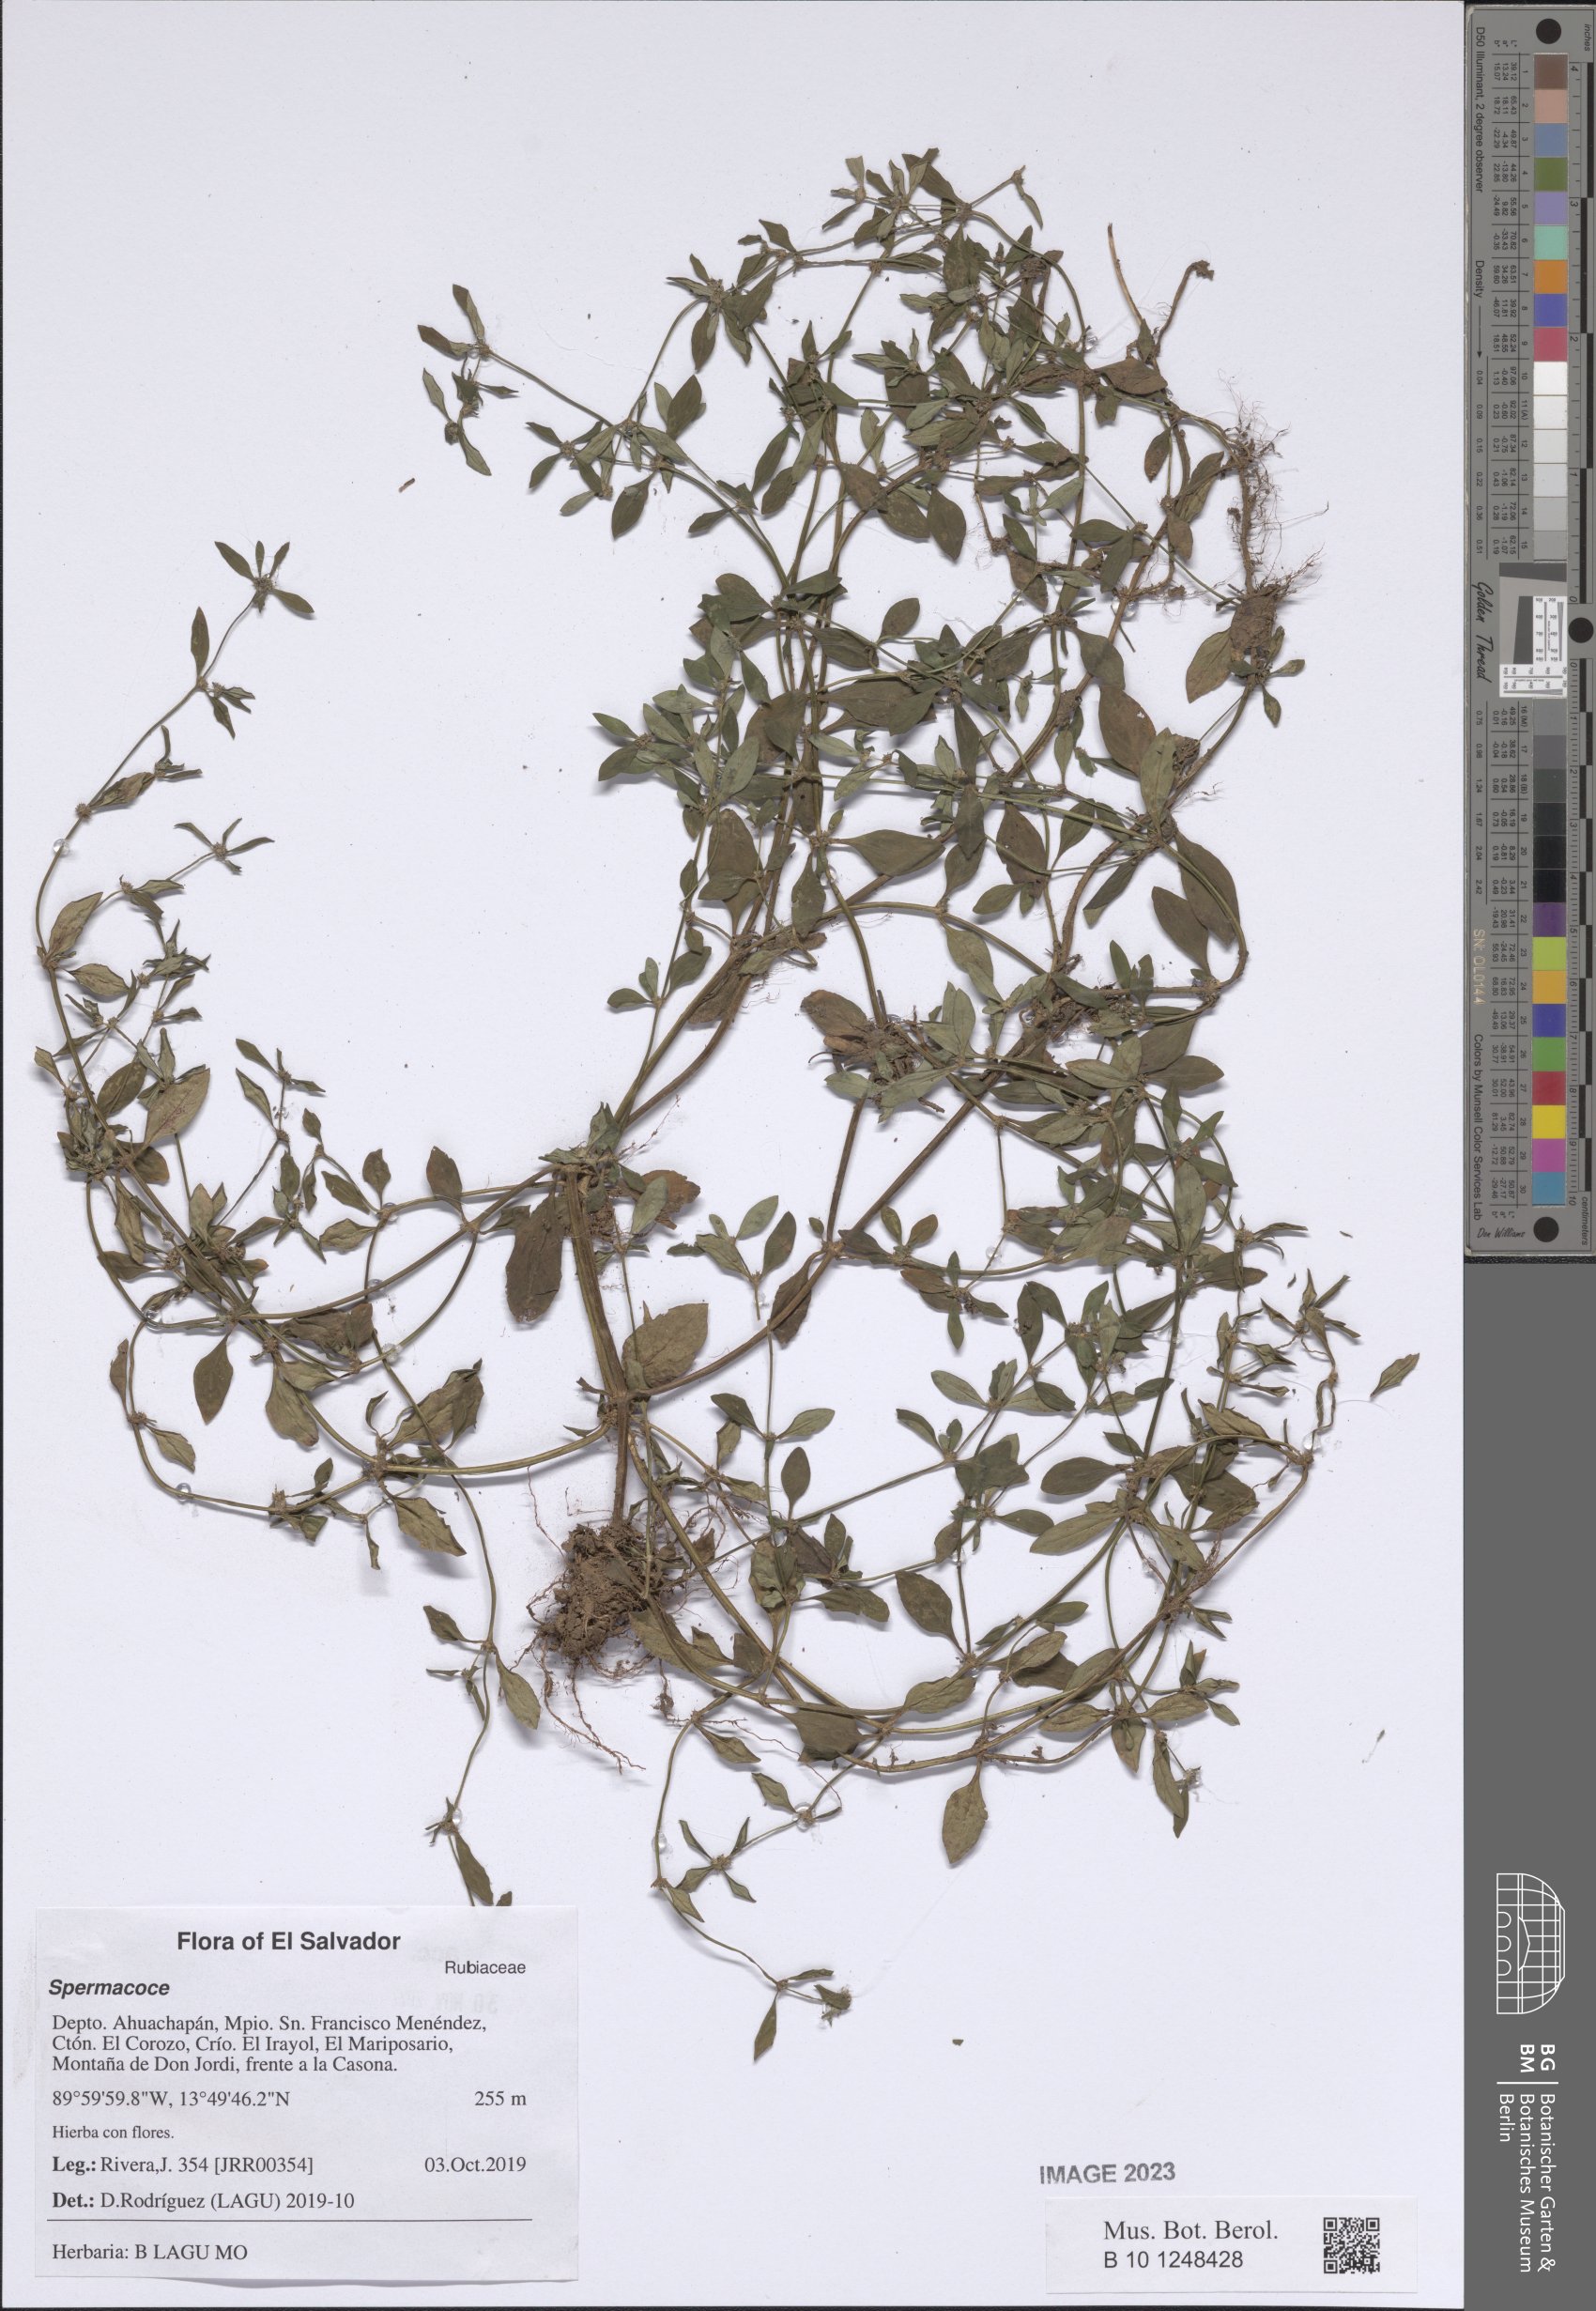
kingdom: Plantae
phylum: Tracheophyta
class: Magnoliopsida
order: Gentianales
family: Rubiaceae
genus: Spermacoce
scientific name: Spermacoce
